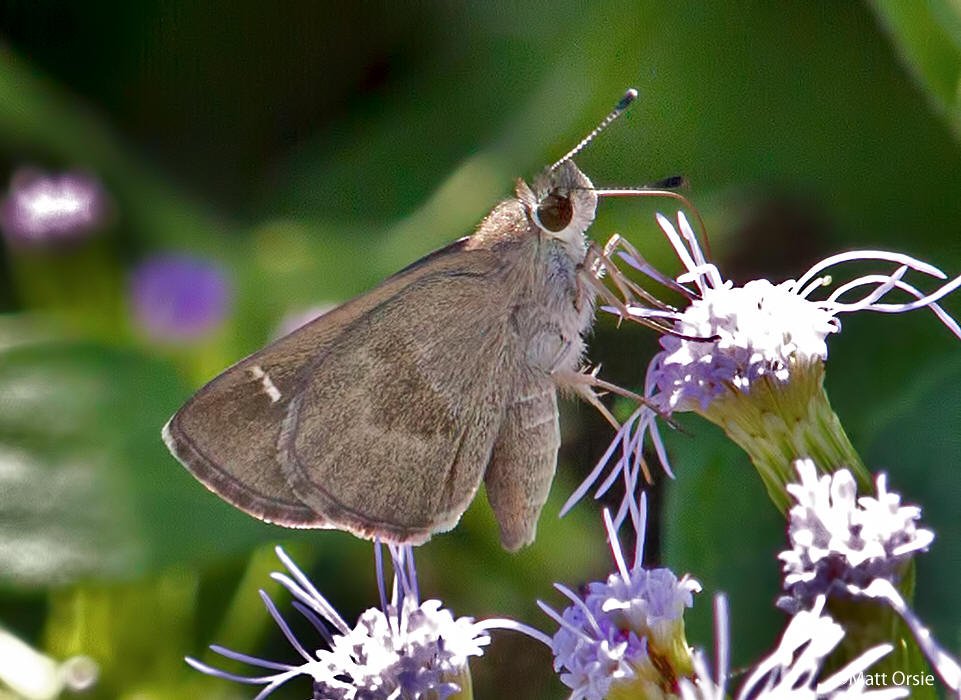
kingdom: Animalia
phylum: Arthropoda
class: Insecta
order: Lepidoptera
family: Hesperiidae
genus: Lerodea
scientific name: Lerodea arabus
